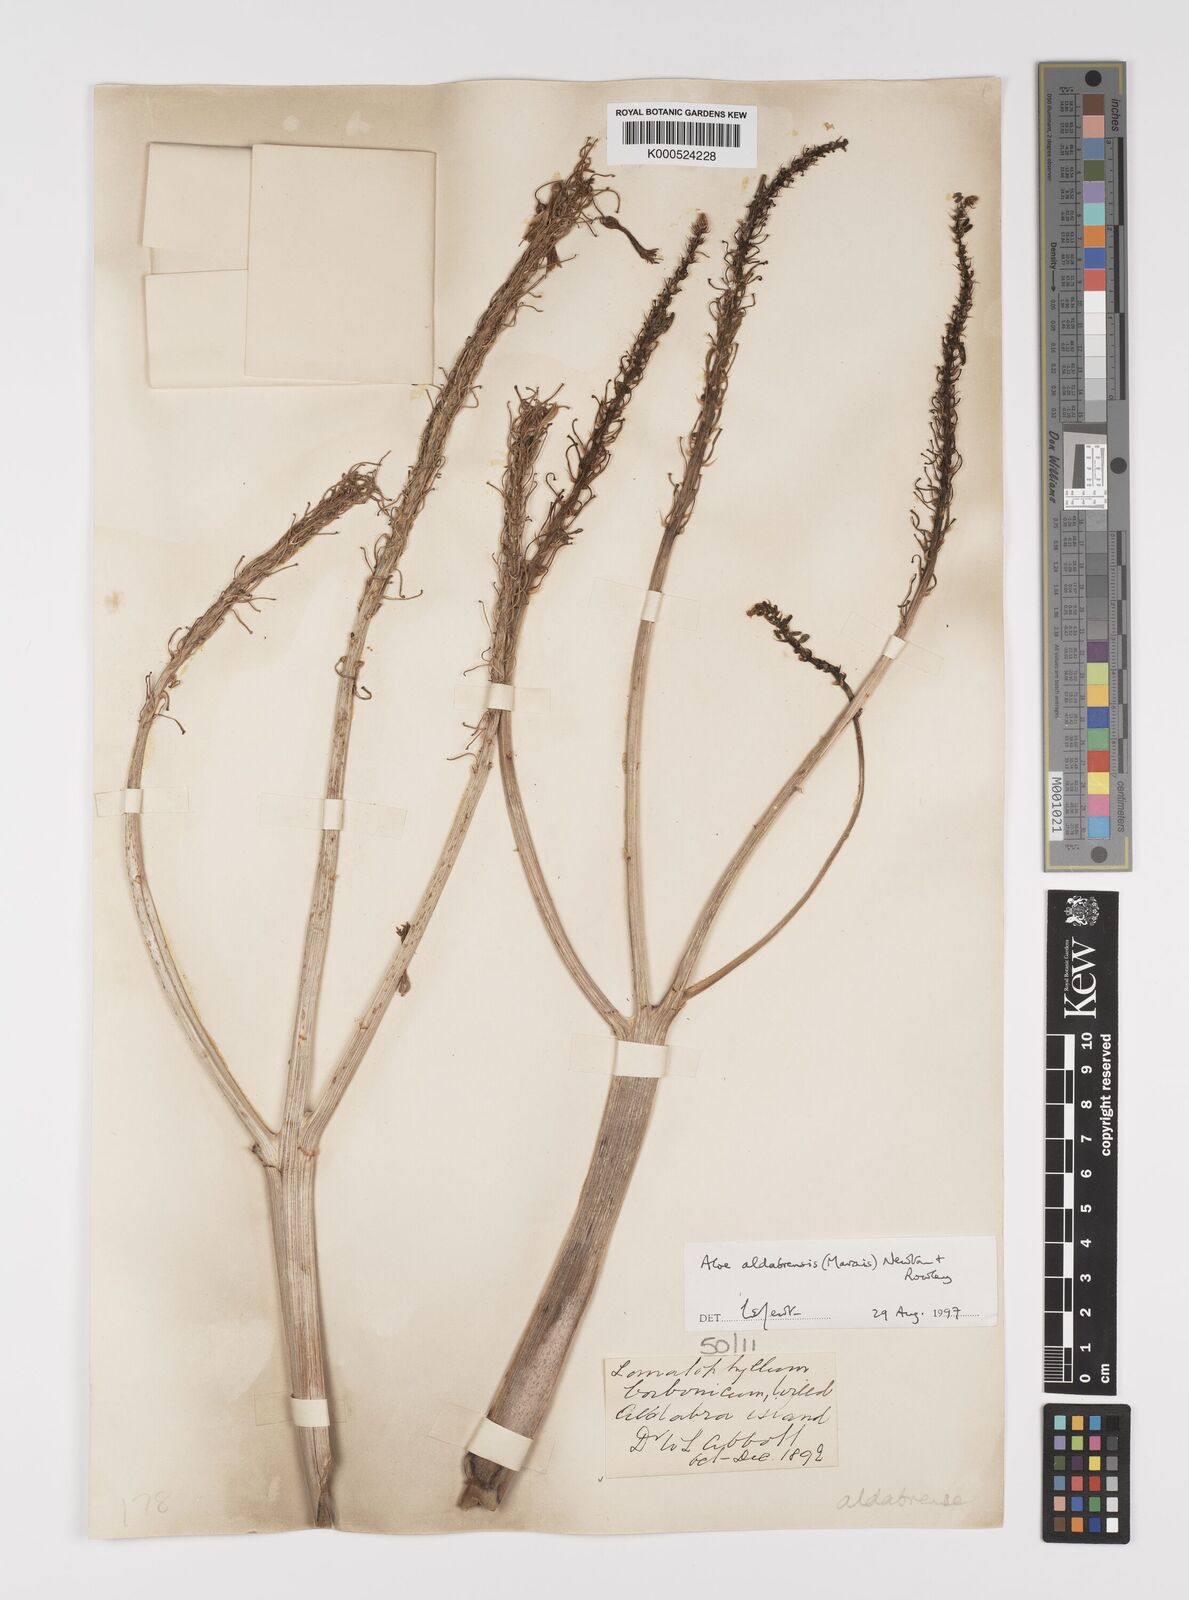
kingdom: Plantae
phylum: Tracheophyta
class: Liliopsida
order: Asparagales
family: Asphodelaceae
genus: Aloe
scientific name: Aloe aldabrensis
